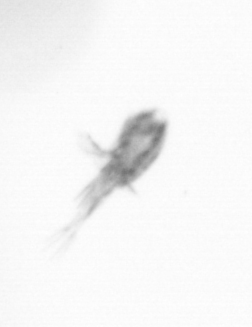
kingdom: Animalia
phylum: Arthropoda
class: Copepoda
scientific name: Copepoda
